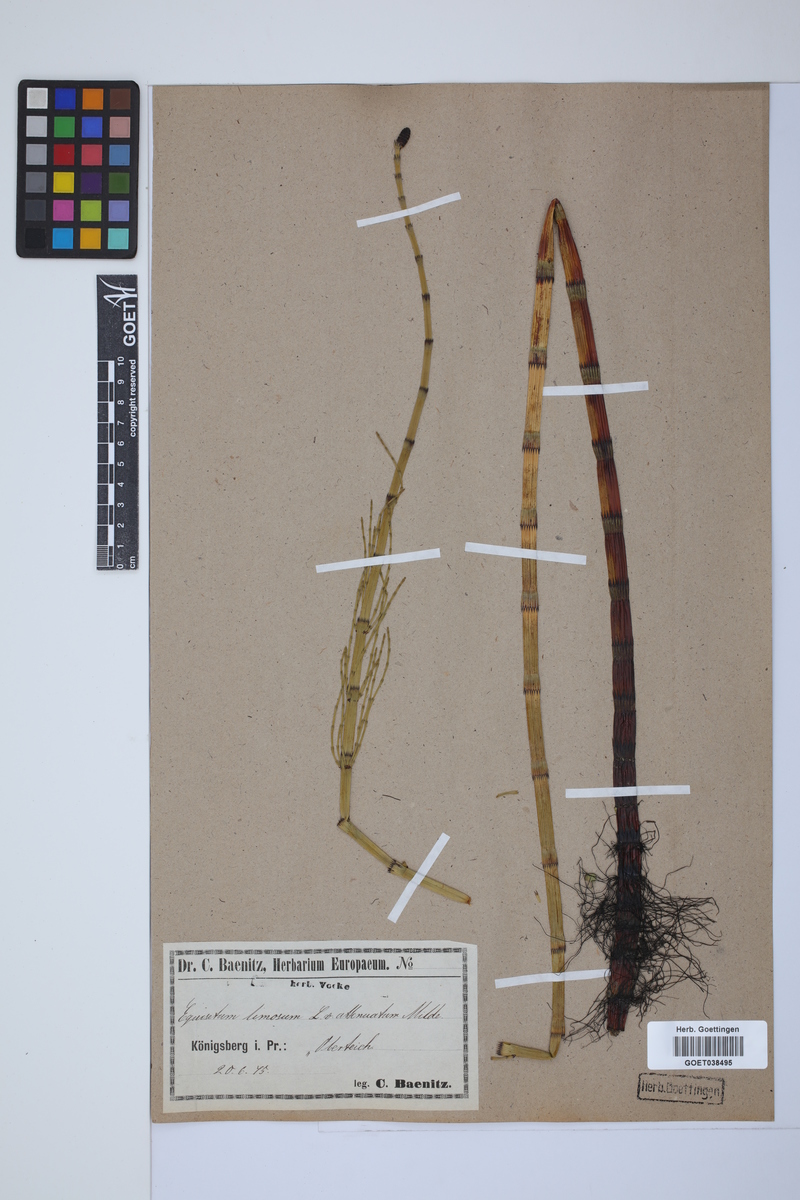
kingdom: Plantae
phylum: Tracheophyta
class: Polypodiopsida
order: Equisetales
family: Equisetaceae
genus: Equisetum
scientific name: Equisetum fluviatile
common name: Water horsetail
